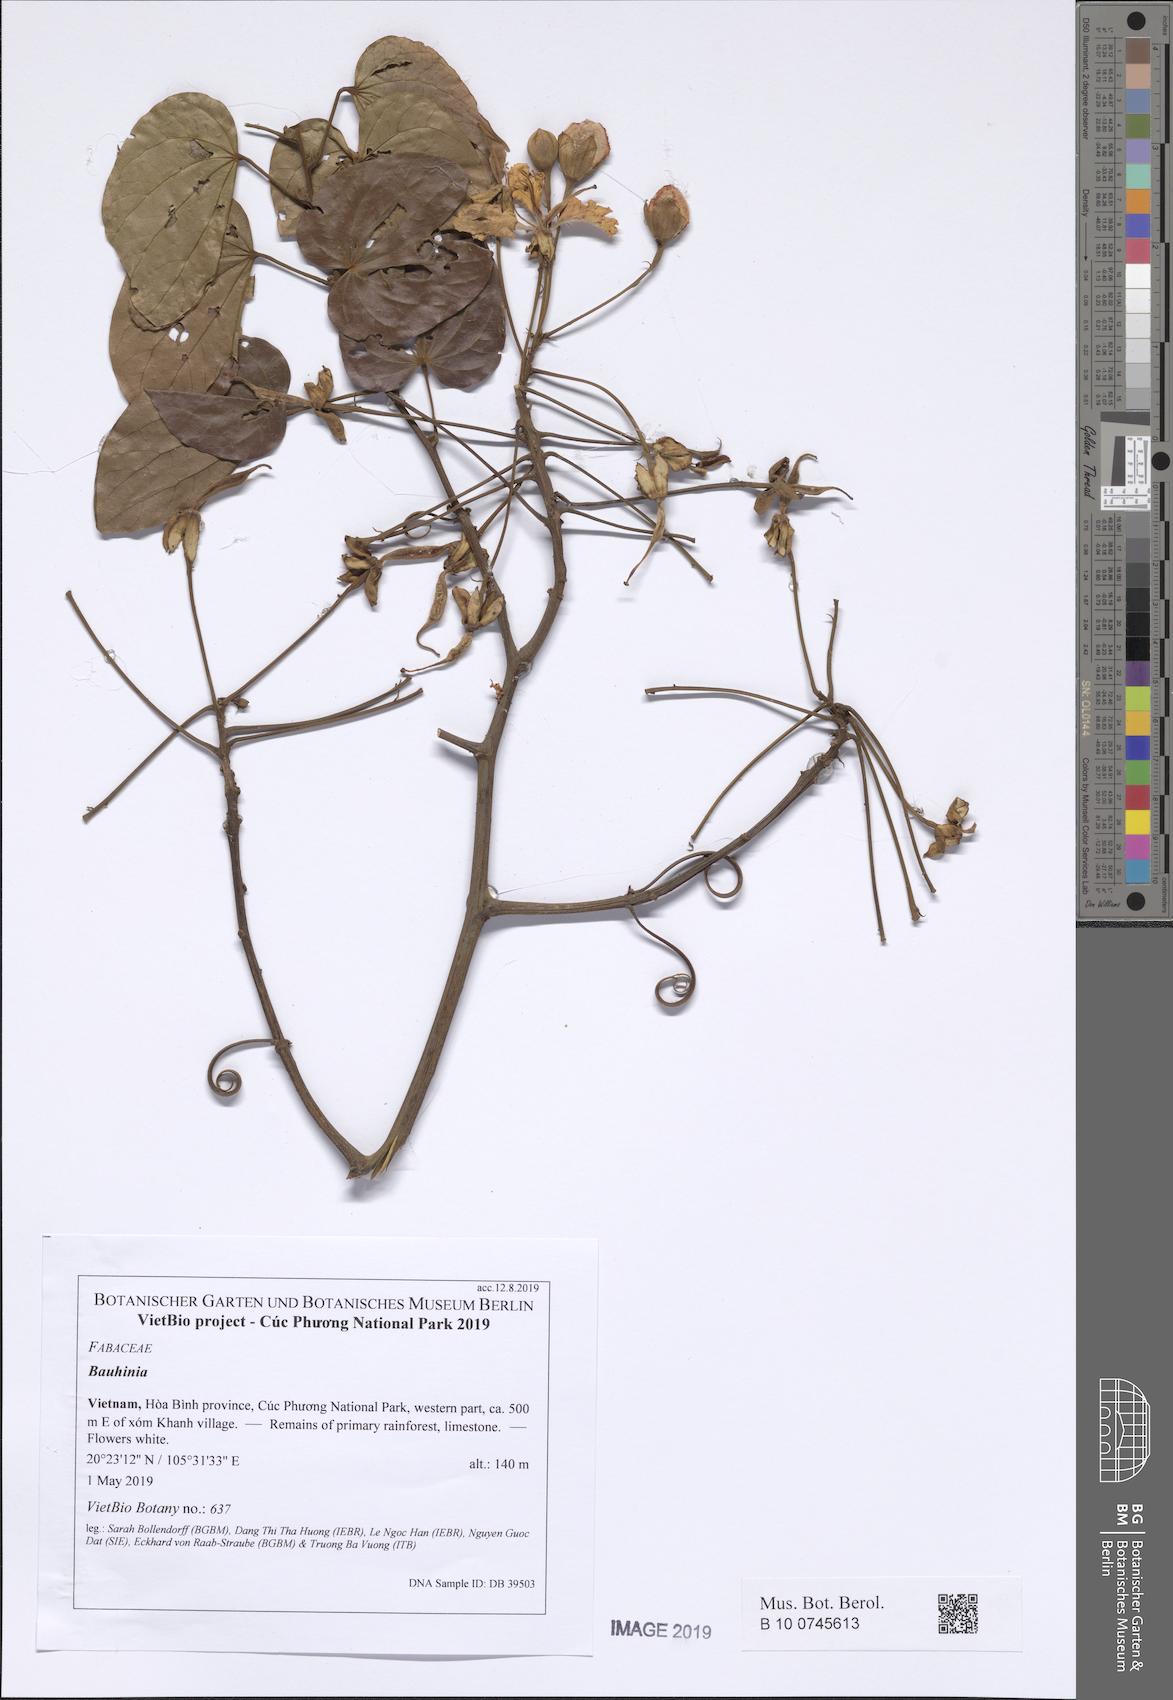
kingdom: Plantae
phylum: Tracheophyta
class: Magnoliopsida
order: Fabales
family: Fabaceae
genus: Phanera
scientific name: Phanera ornata
